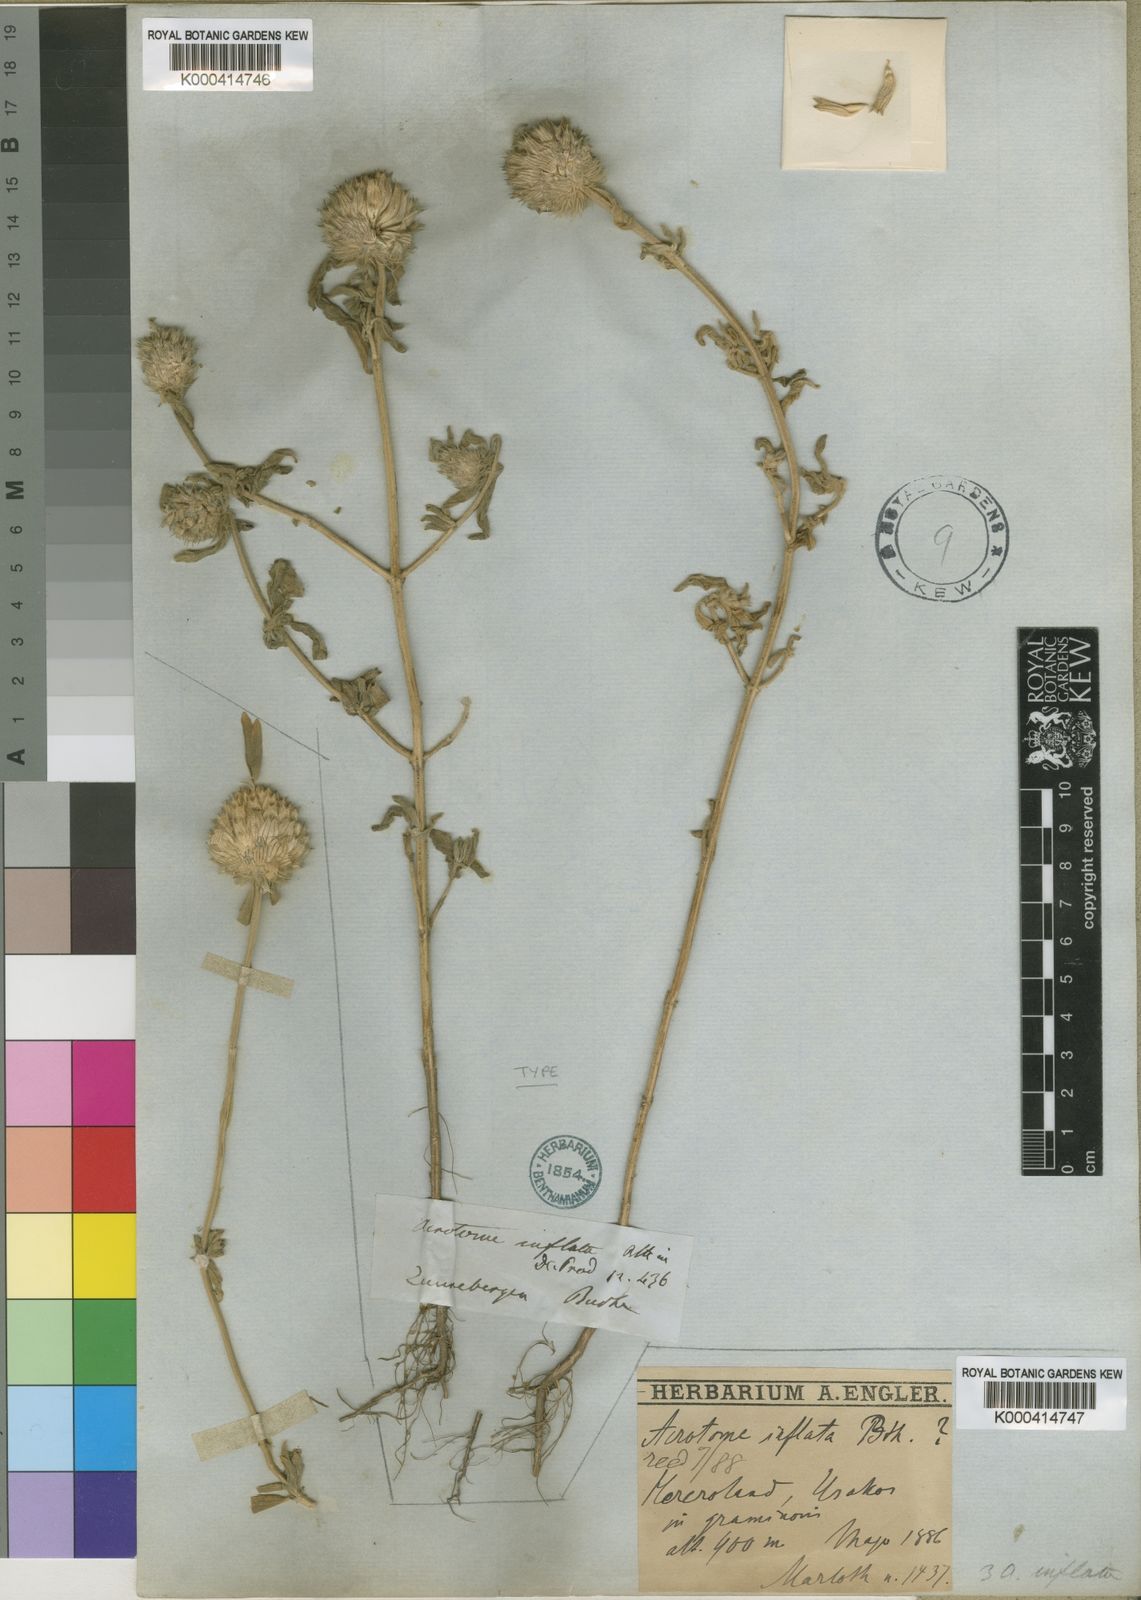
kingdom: Plantae
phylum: Tracheophyta
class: Magnoliopsida
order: Lamiales
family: Lamiaceae
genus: Acrotome
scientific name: Acrotome inflata
